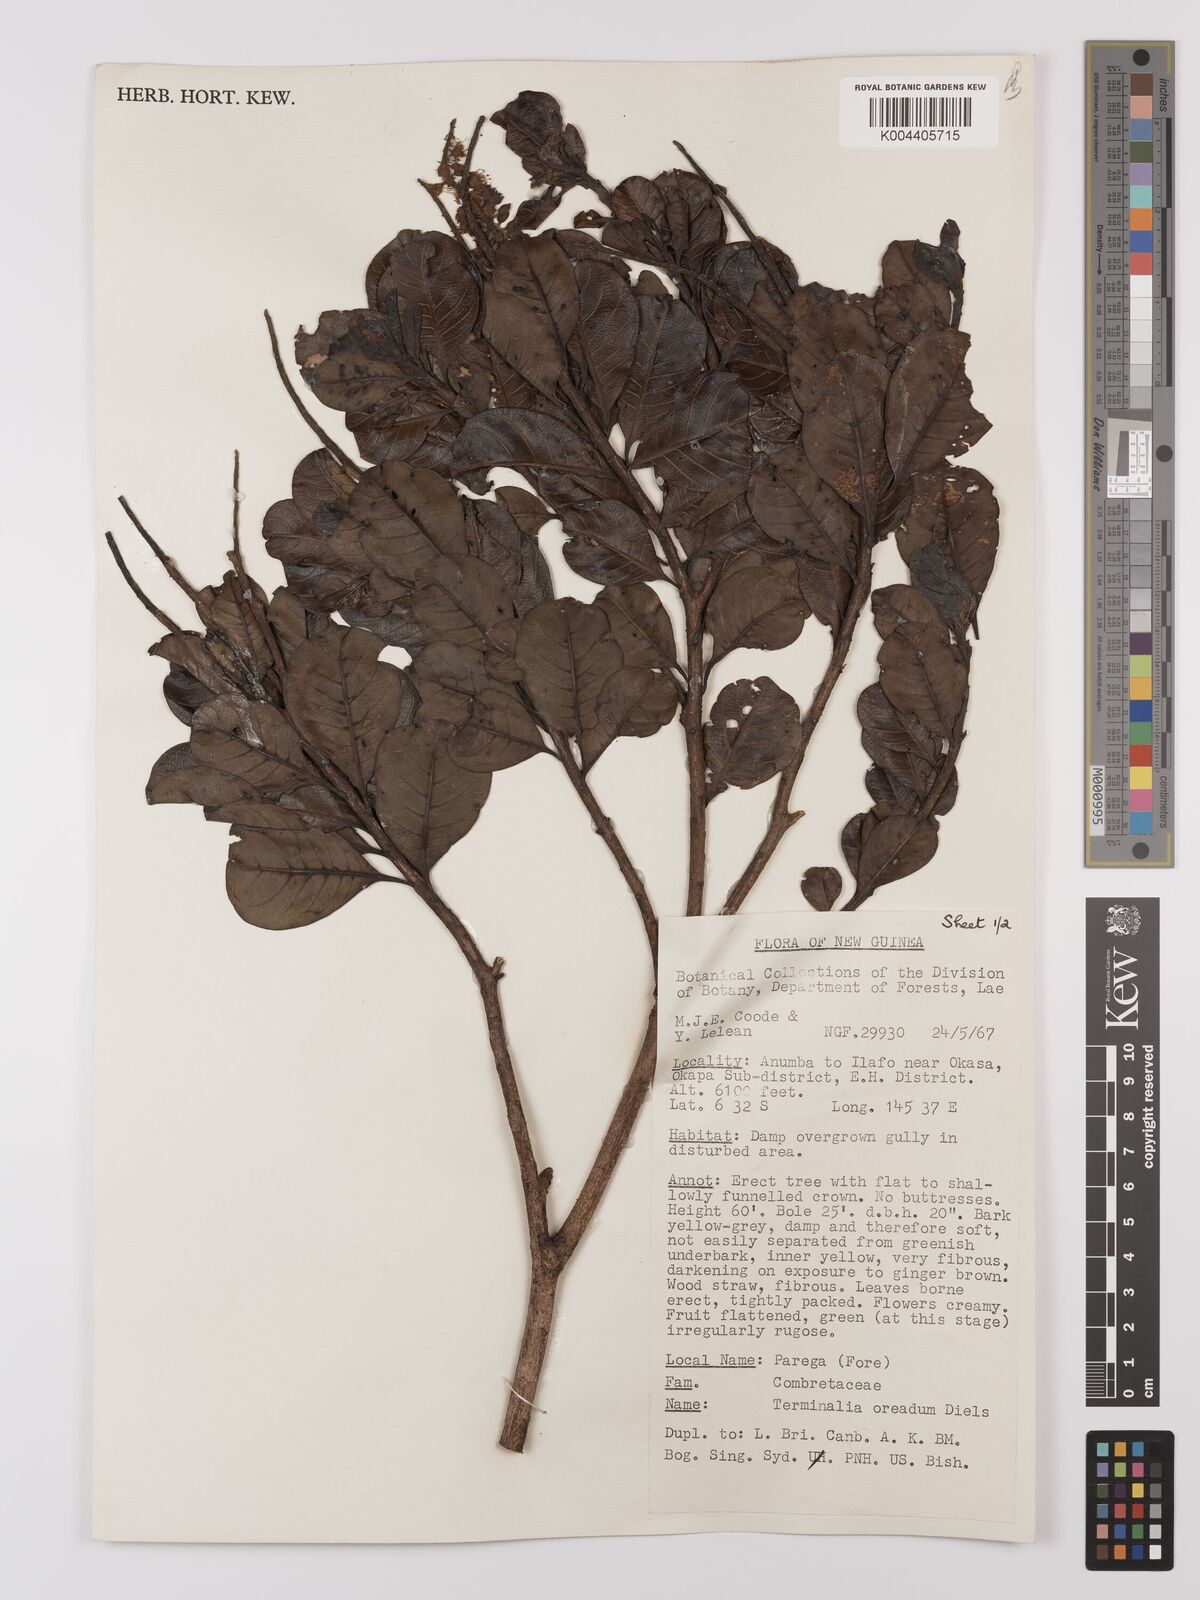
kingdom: Plantae
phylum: Tracheophyta
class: Magnoliopsida
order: Myrtales
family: Combretaceae
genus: Terminalia
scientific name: Terminalia oreadum
